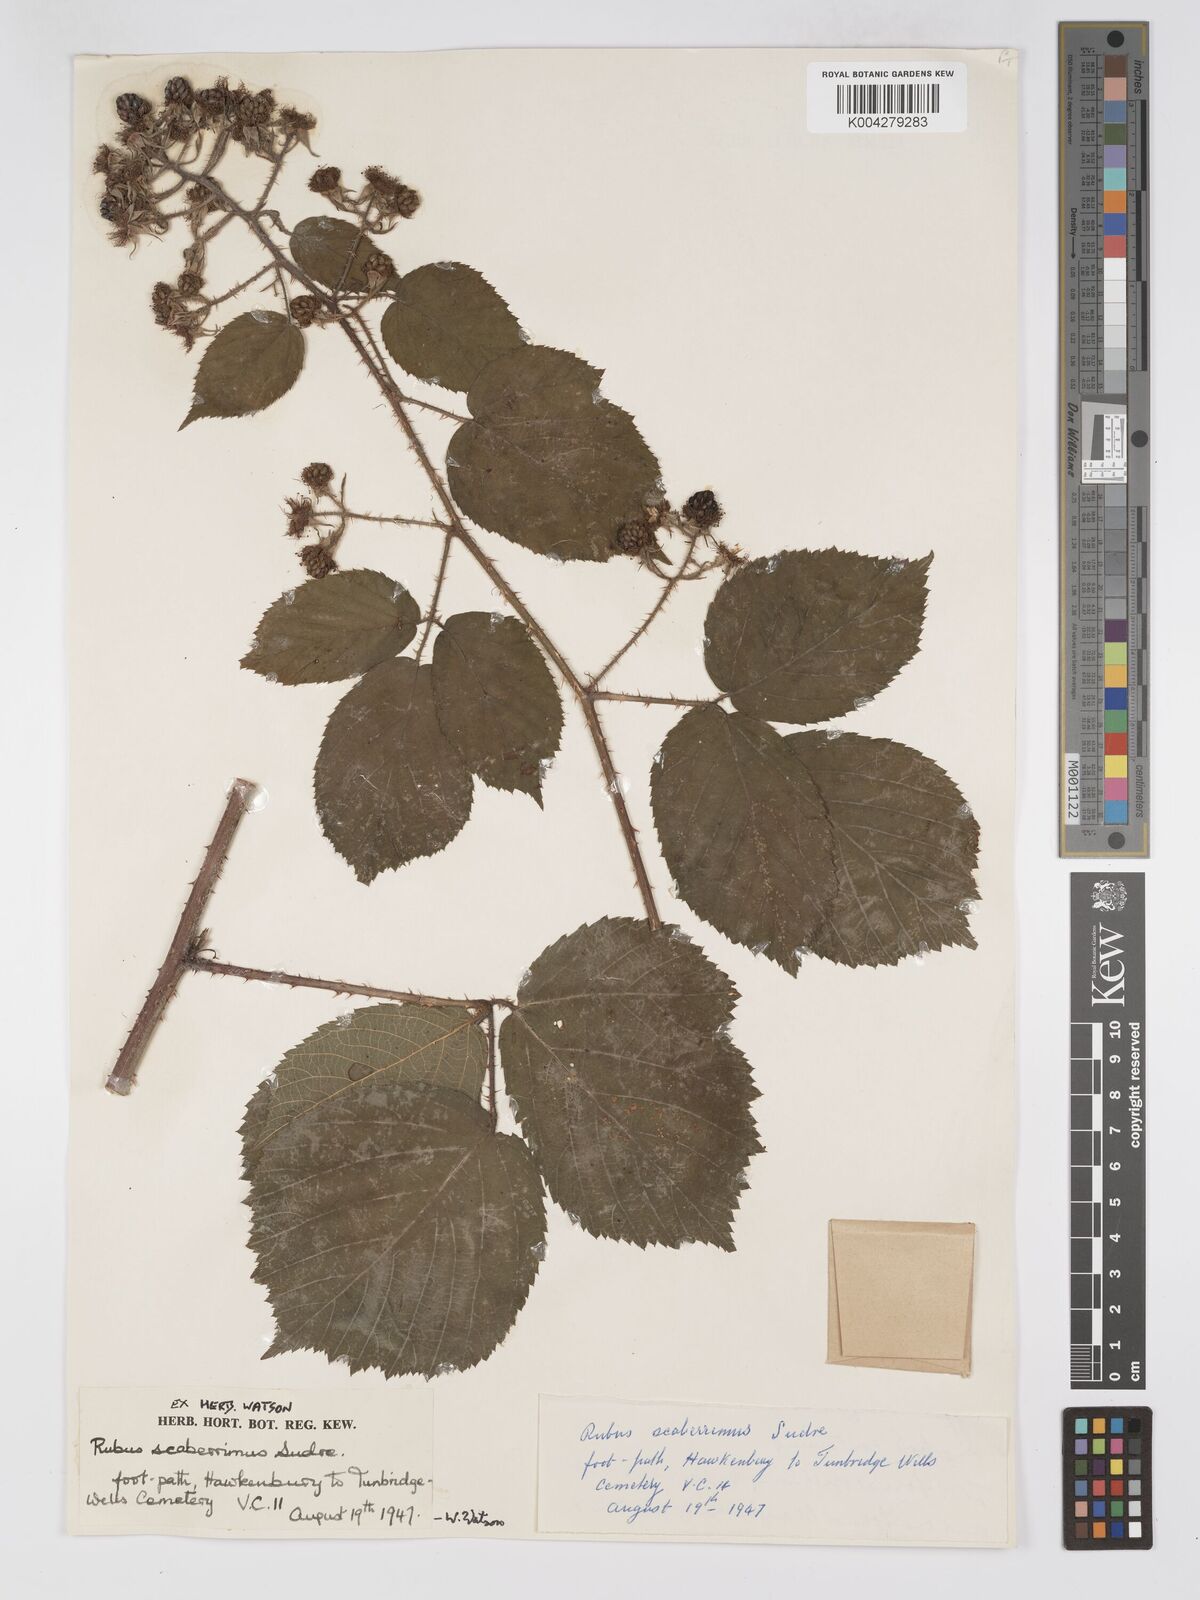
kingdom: Plantae
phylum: Tracheophyta
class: Magnoliopsida
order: Rosales
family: Rosaceae
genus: Rubus
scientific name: Rubus praetextus
